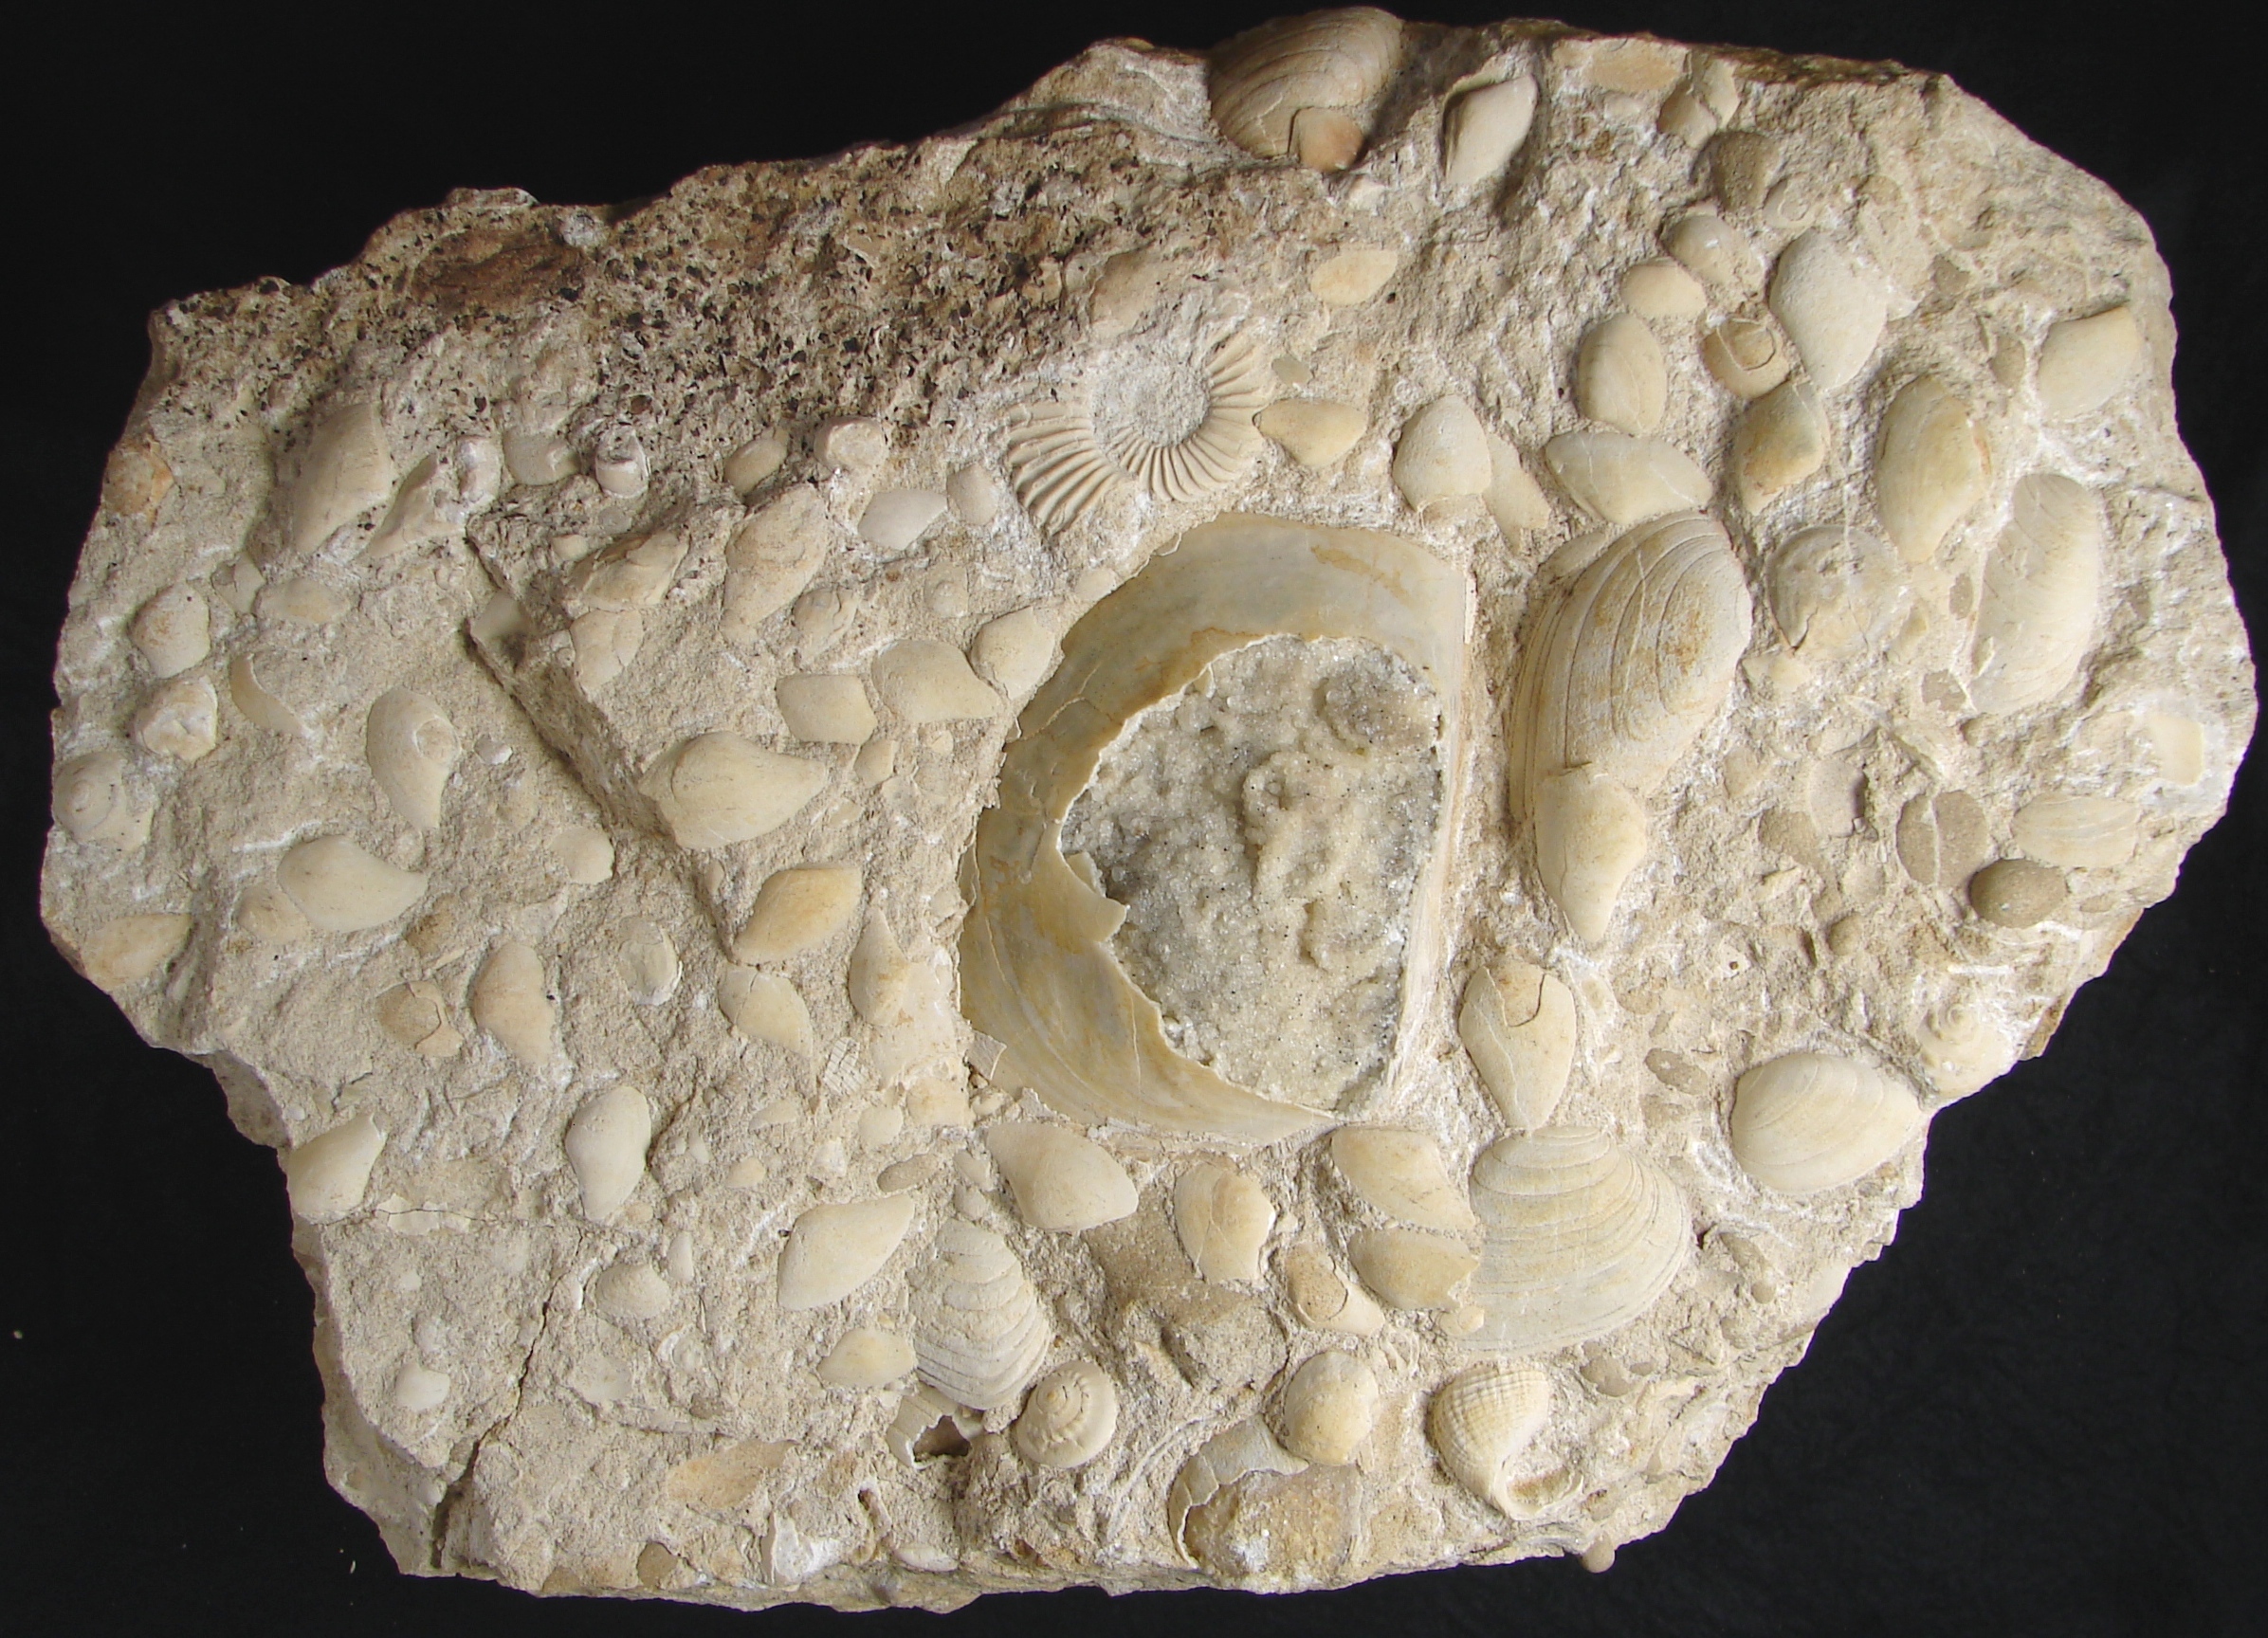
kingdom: Animalia
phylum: Mollusca
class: Bivalvia
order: Carditida
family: Cardiniidae
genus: Cardinia
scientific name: Cardinia
